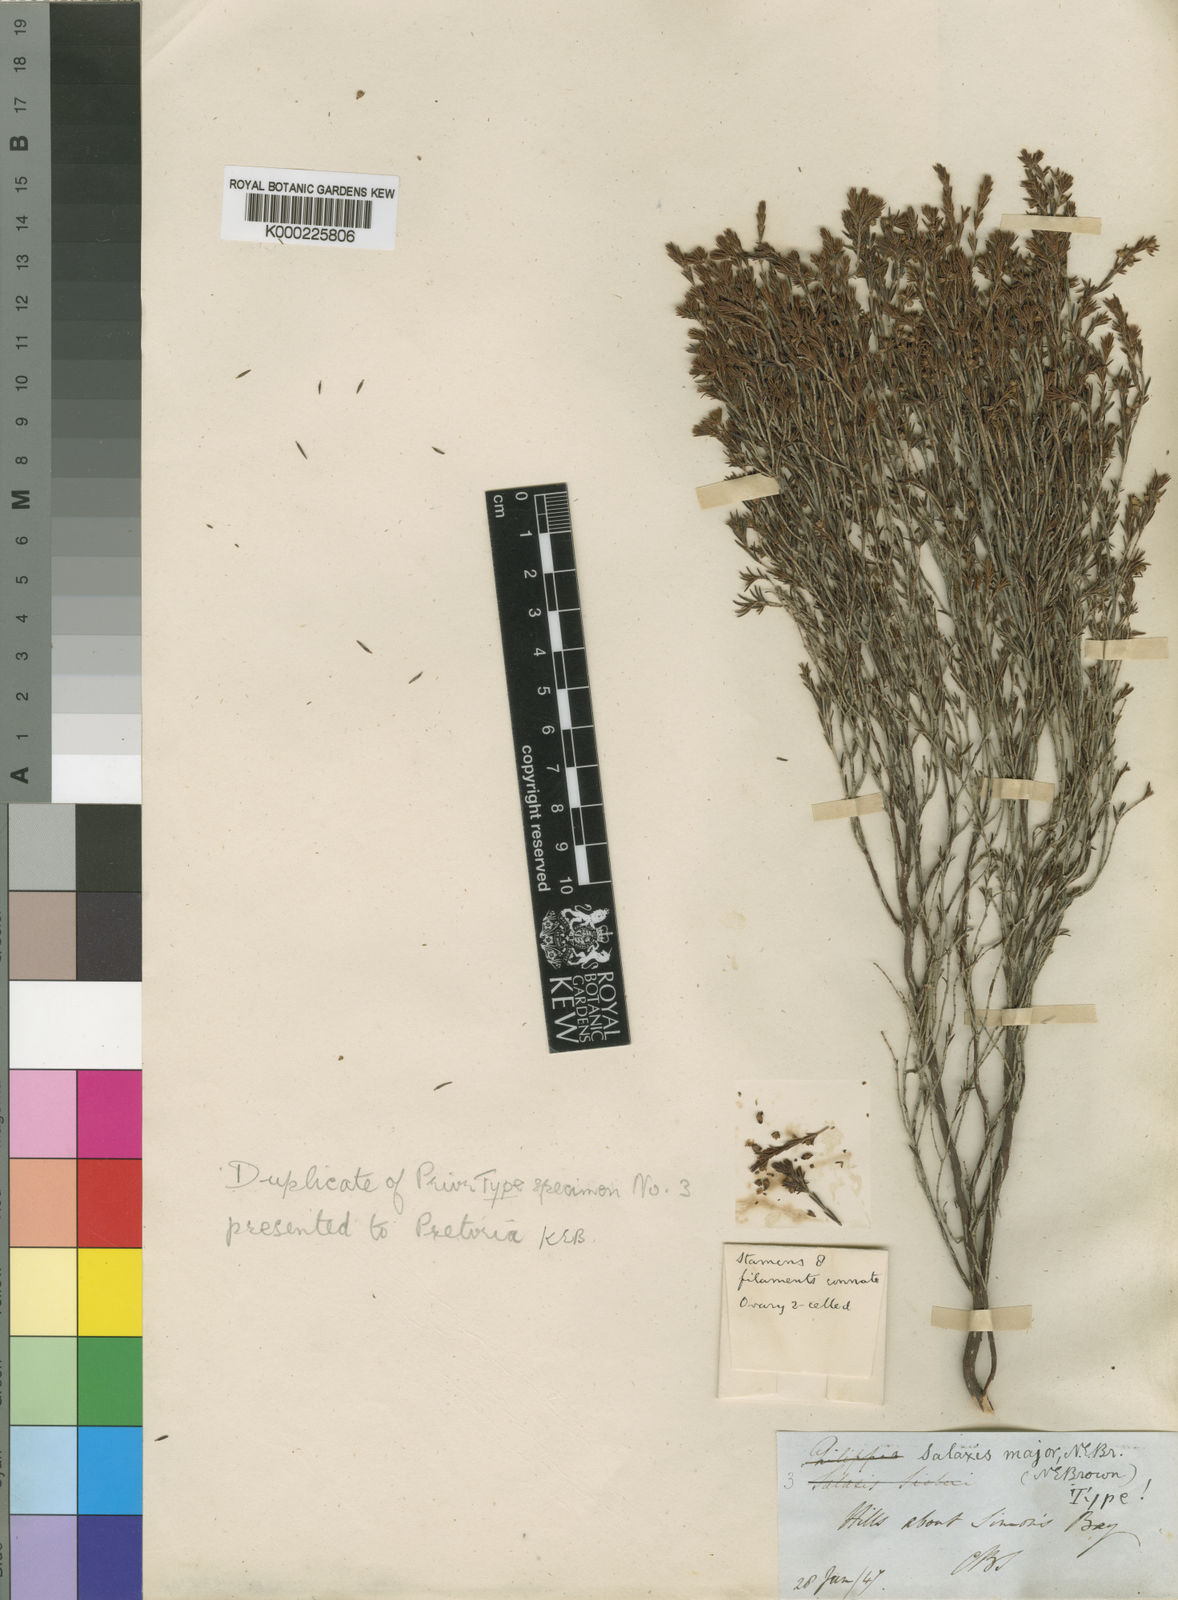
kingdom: Plantae
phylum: Tracheophyta
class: Magnoliopsida
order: Ericales
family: Ericaceae
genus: Erica
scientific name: Erica axillaris
